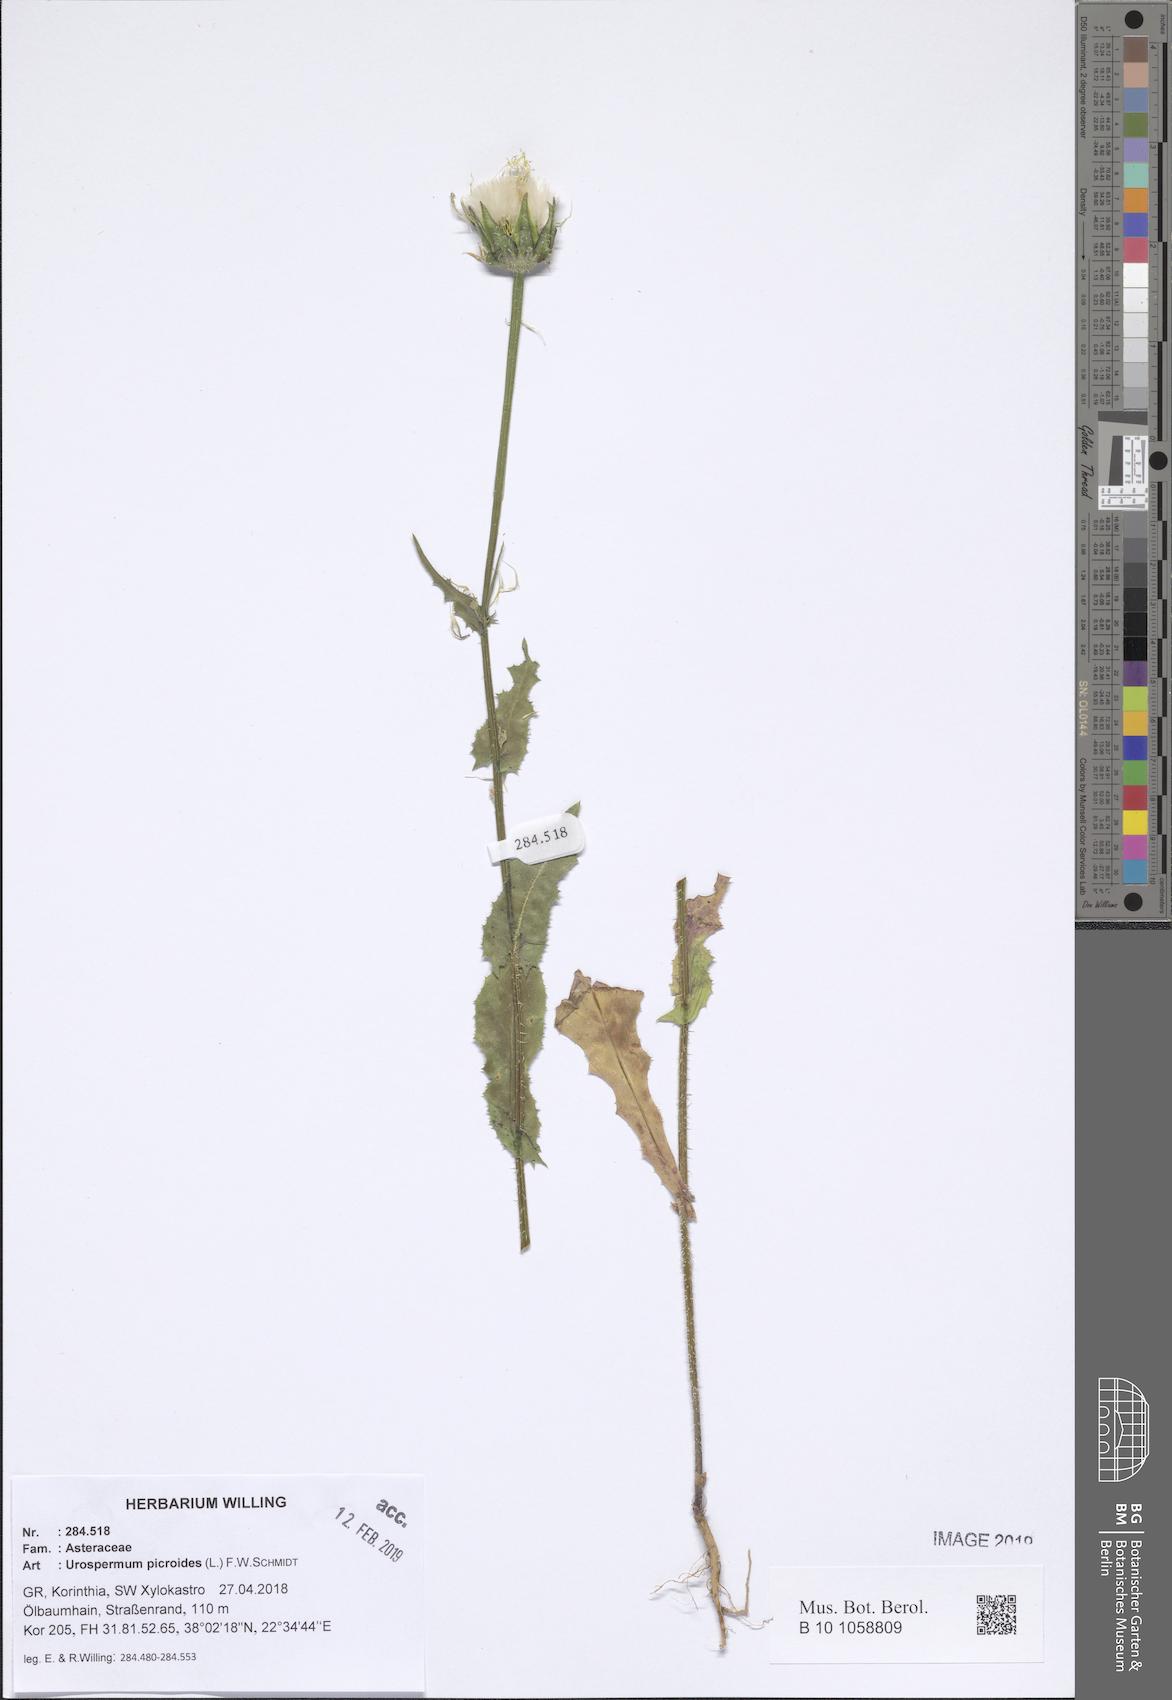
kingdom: Plantae
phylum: Tracheophyta
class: Magnoliopsida
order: Asterales
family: Asteraceae
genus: Urospermum
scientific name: Urospermum picroides
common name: False hawkbit
